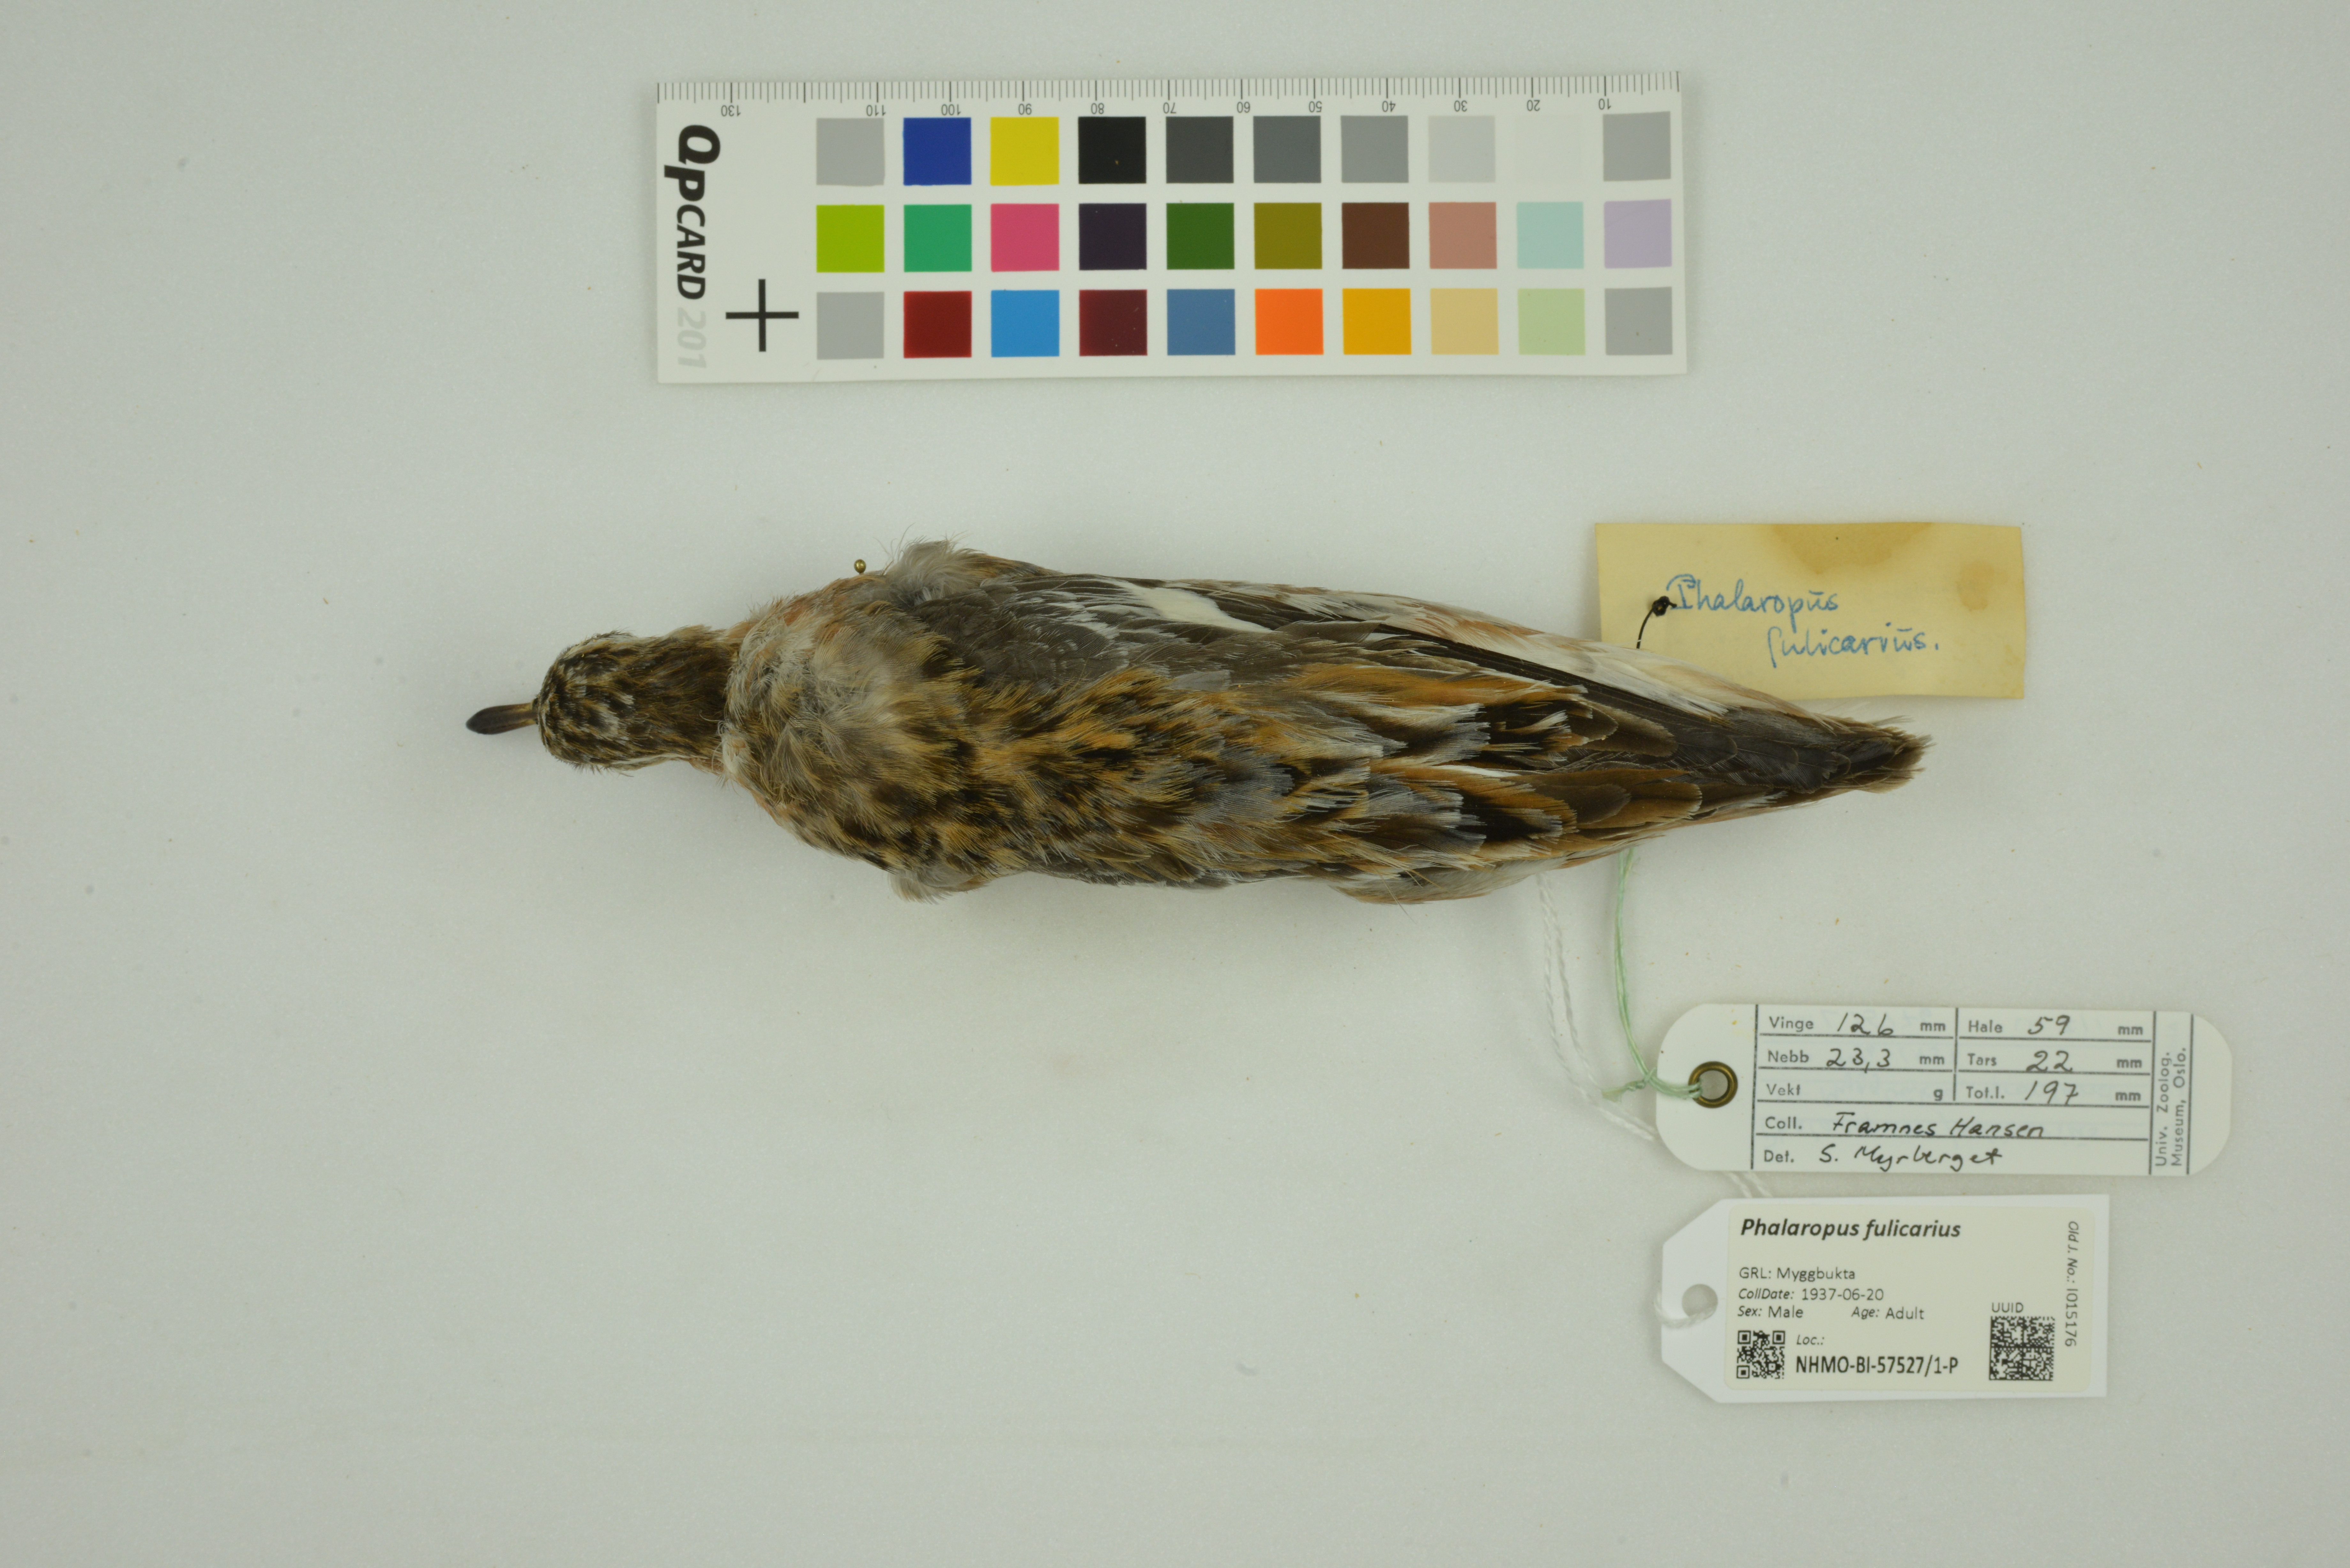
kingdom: Animalia
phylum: Chordata
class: Aves
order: Charadriiformes
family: Scolopacidae
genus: Phalaropus
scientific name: Phalaropus fulicarius
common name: Red phalarope
